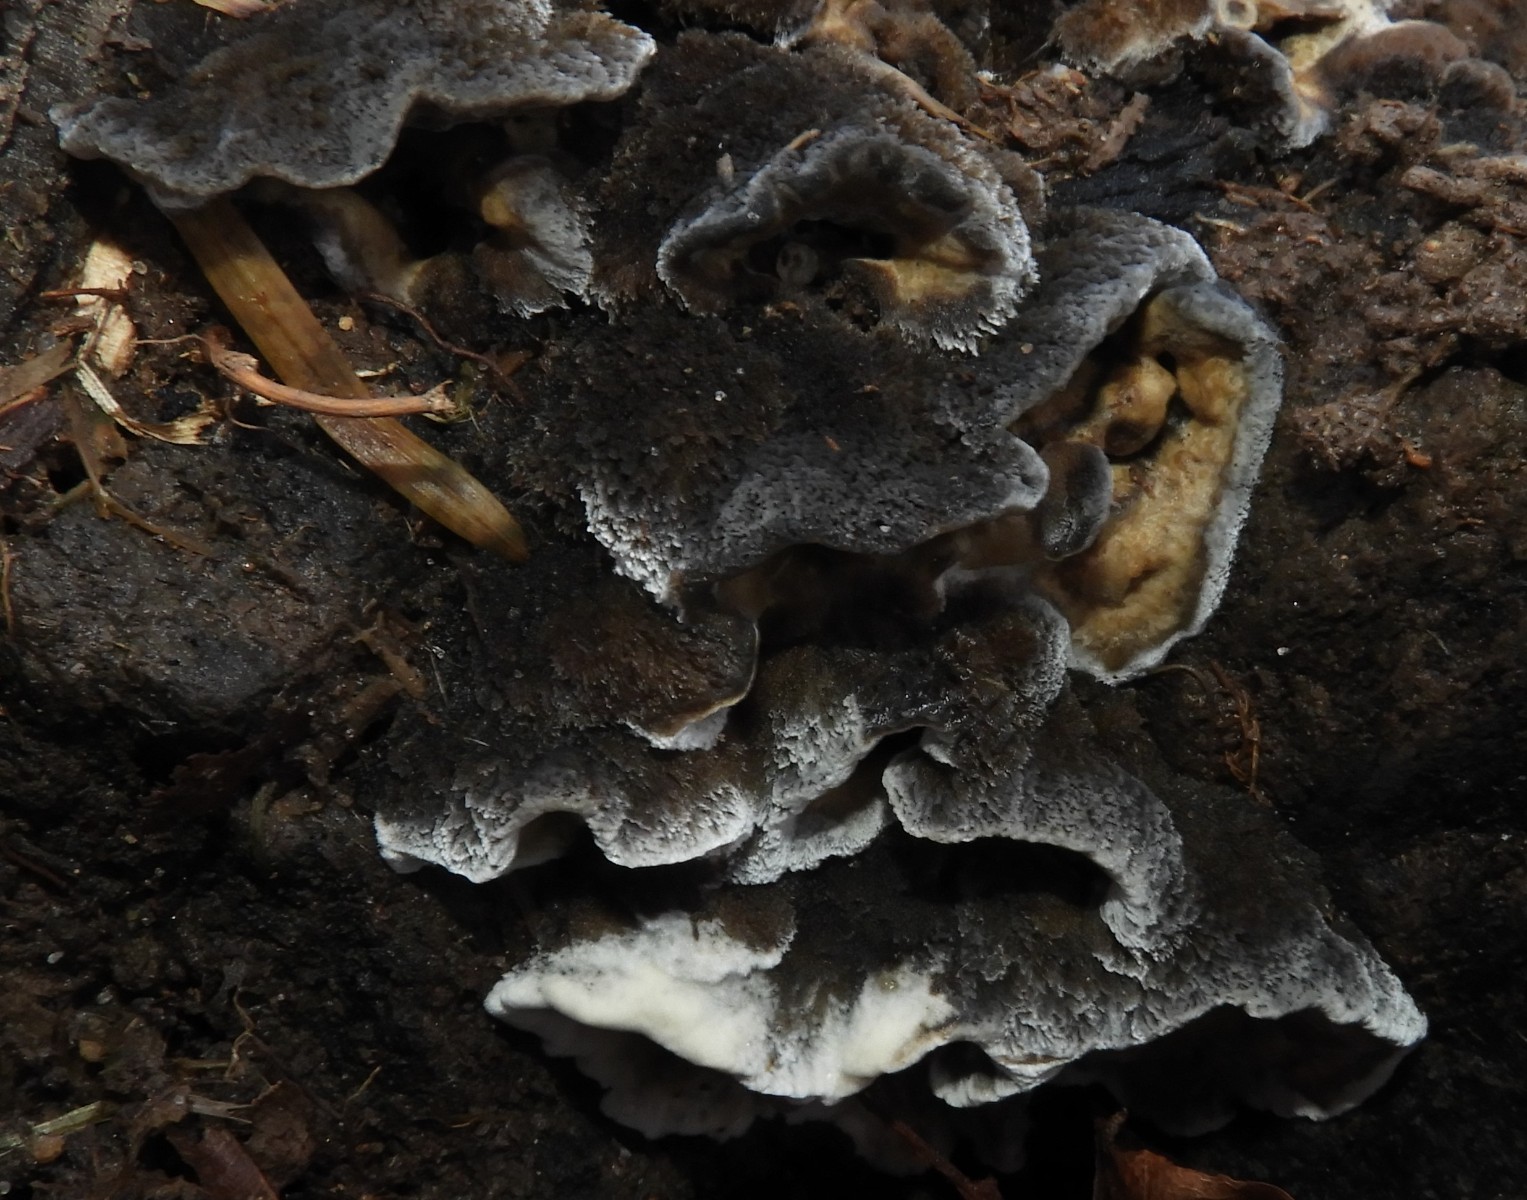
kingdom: Fungi
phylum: Basidiomycota
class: Agaricomycetes
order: Polyporales
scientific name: Polyporales
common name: poresvampordenen
